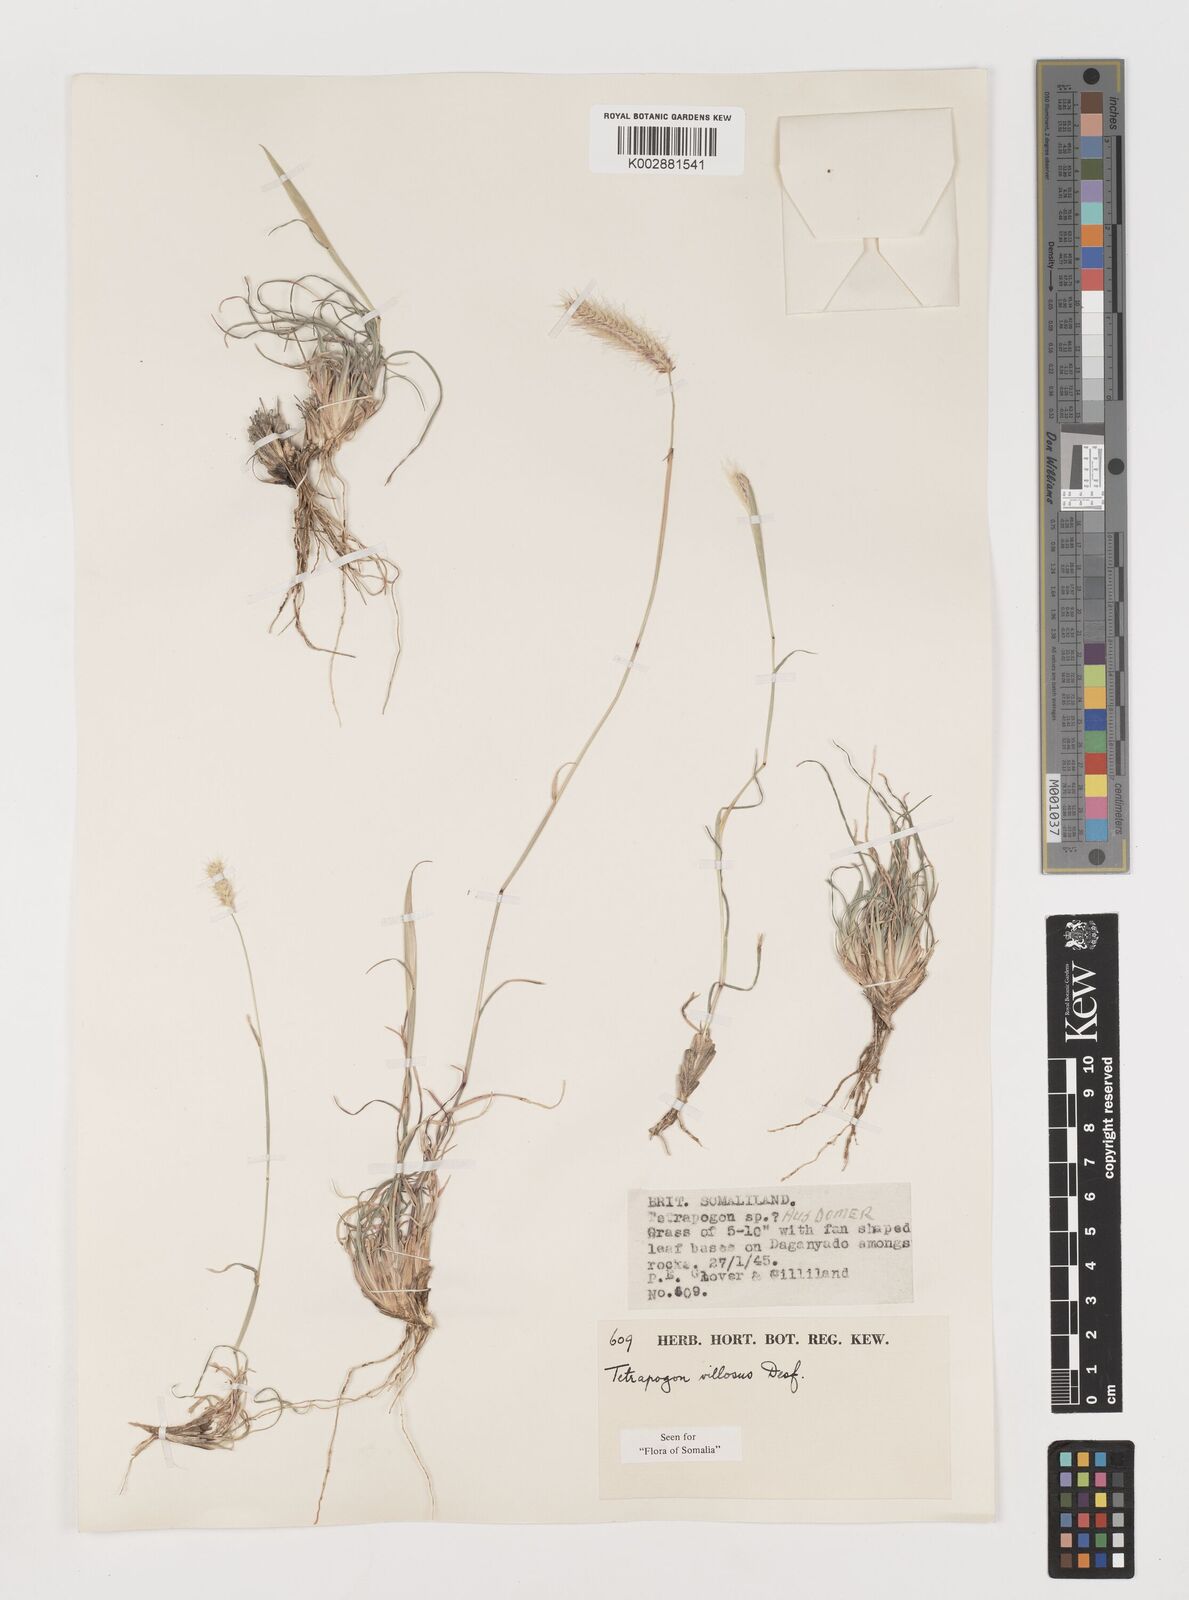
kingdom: Plantae
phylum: Tracheophyta
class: Liliopsida
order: Poales
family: Poaceae
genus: Tetrapogon
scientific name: Tetrapogon villosus
